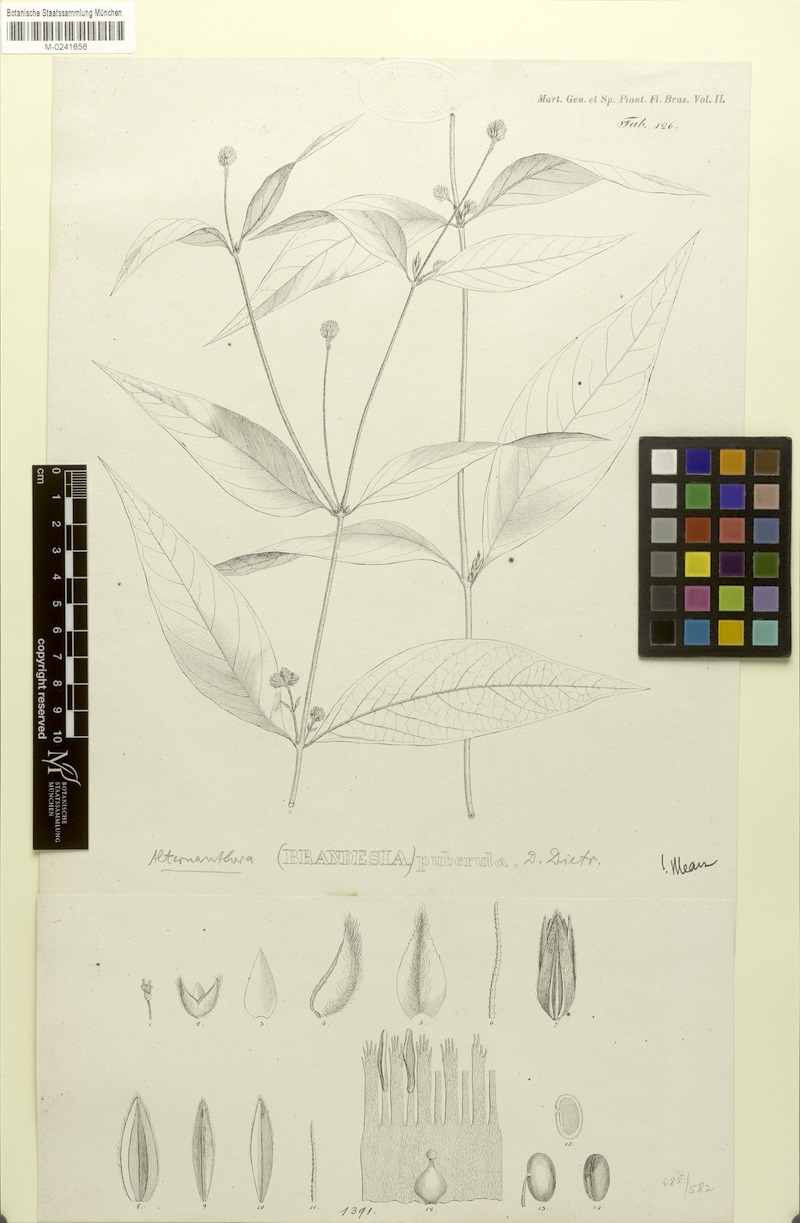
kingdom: Plantae
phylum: Tracheophyta
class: Magnoliopsida
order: Caryophyllales
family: Amaranthaceae
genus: Alternanthera
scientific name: Alternanthera puberula
